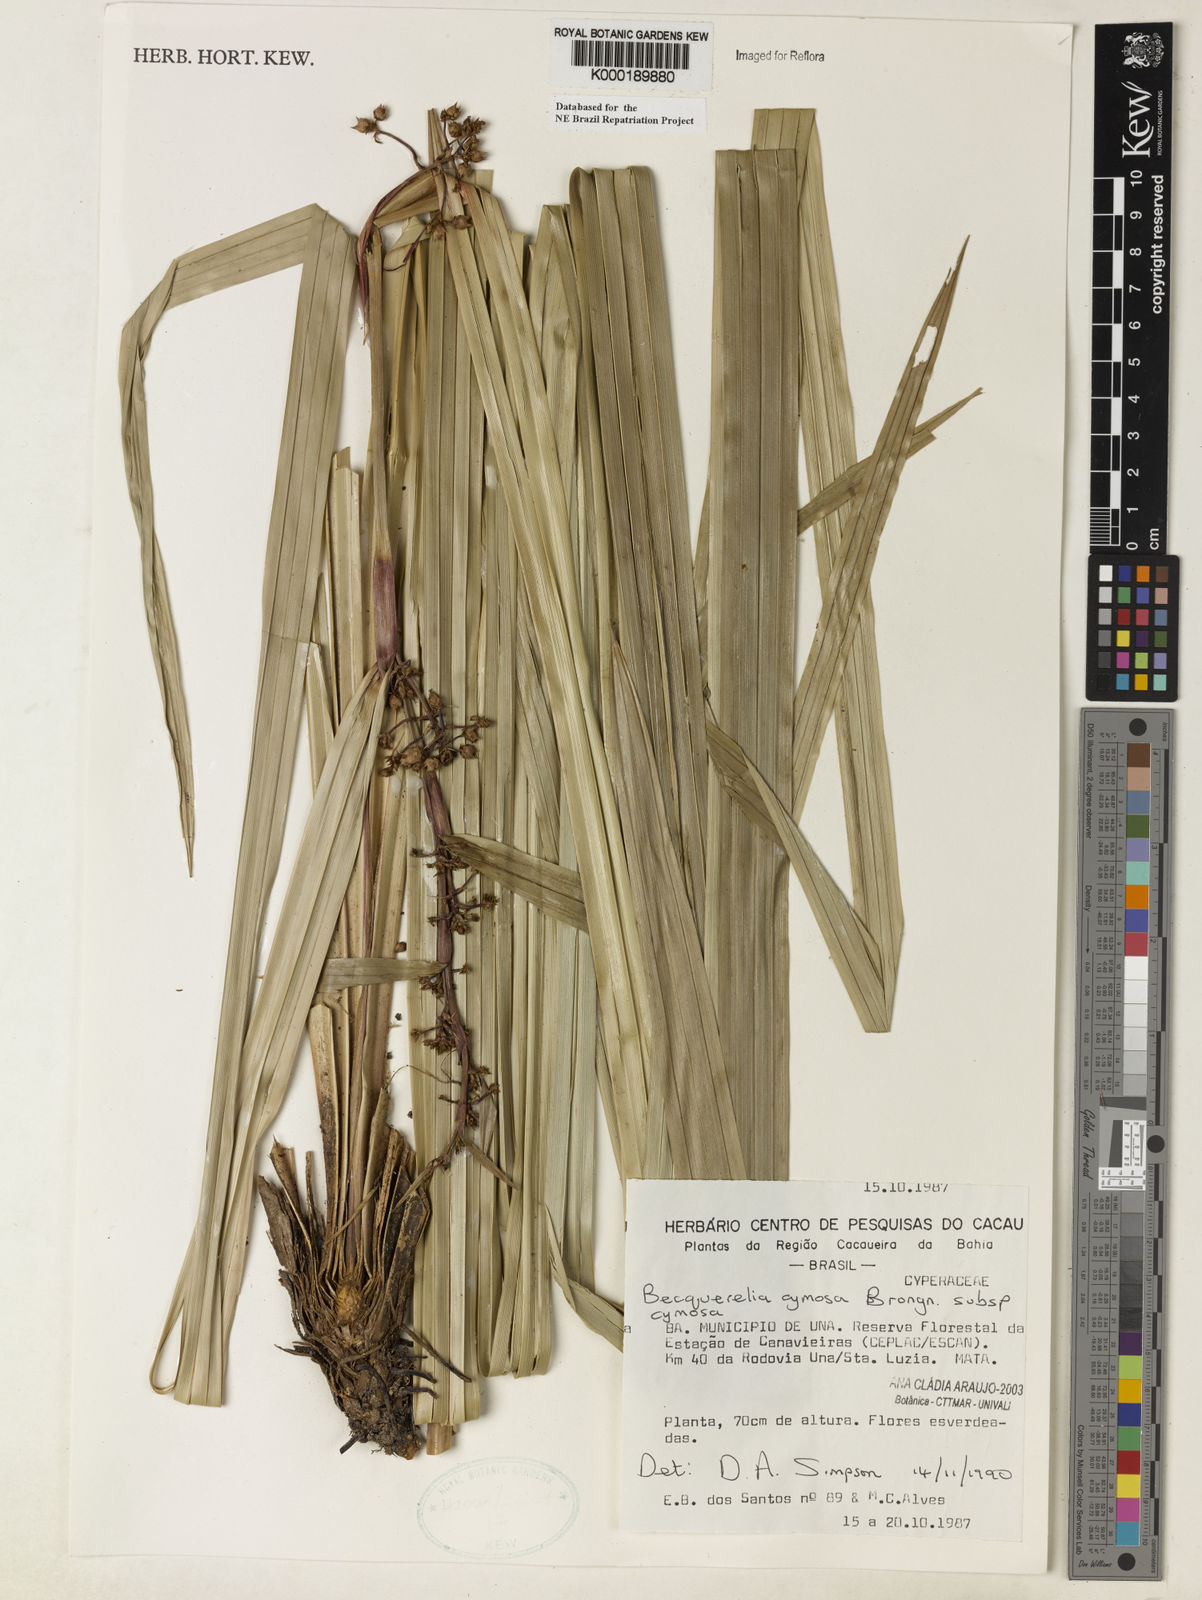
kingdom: Plantae
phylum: Tracheophyta
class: Liliopsida
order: Poales
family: Cyperaceae
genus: Becquerelia
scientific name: Becquerelia cymosa
